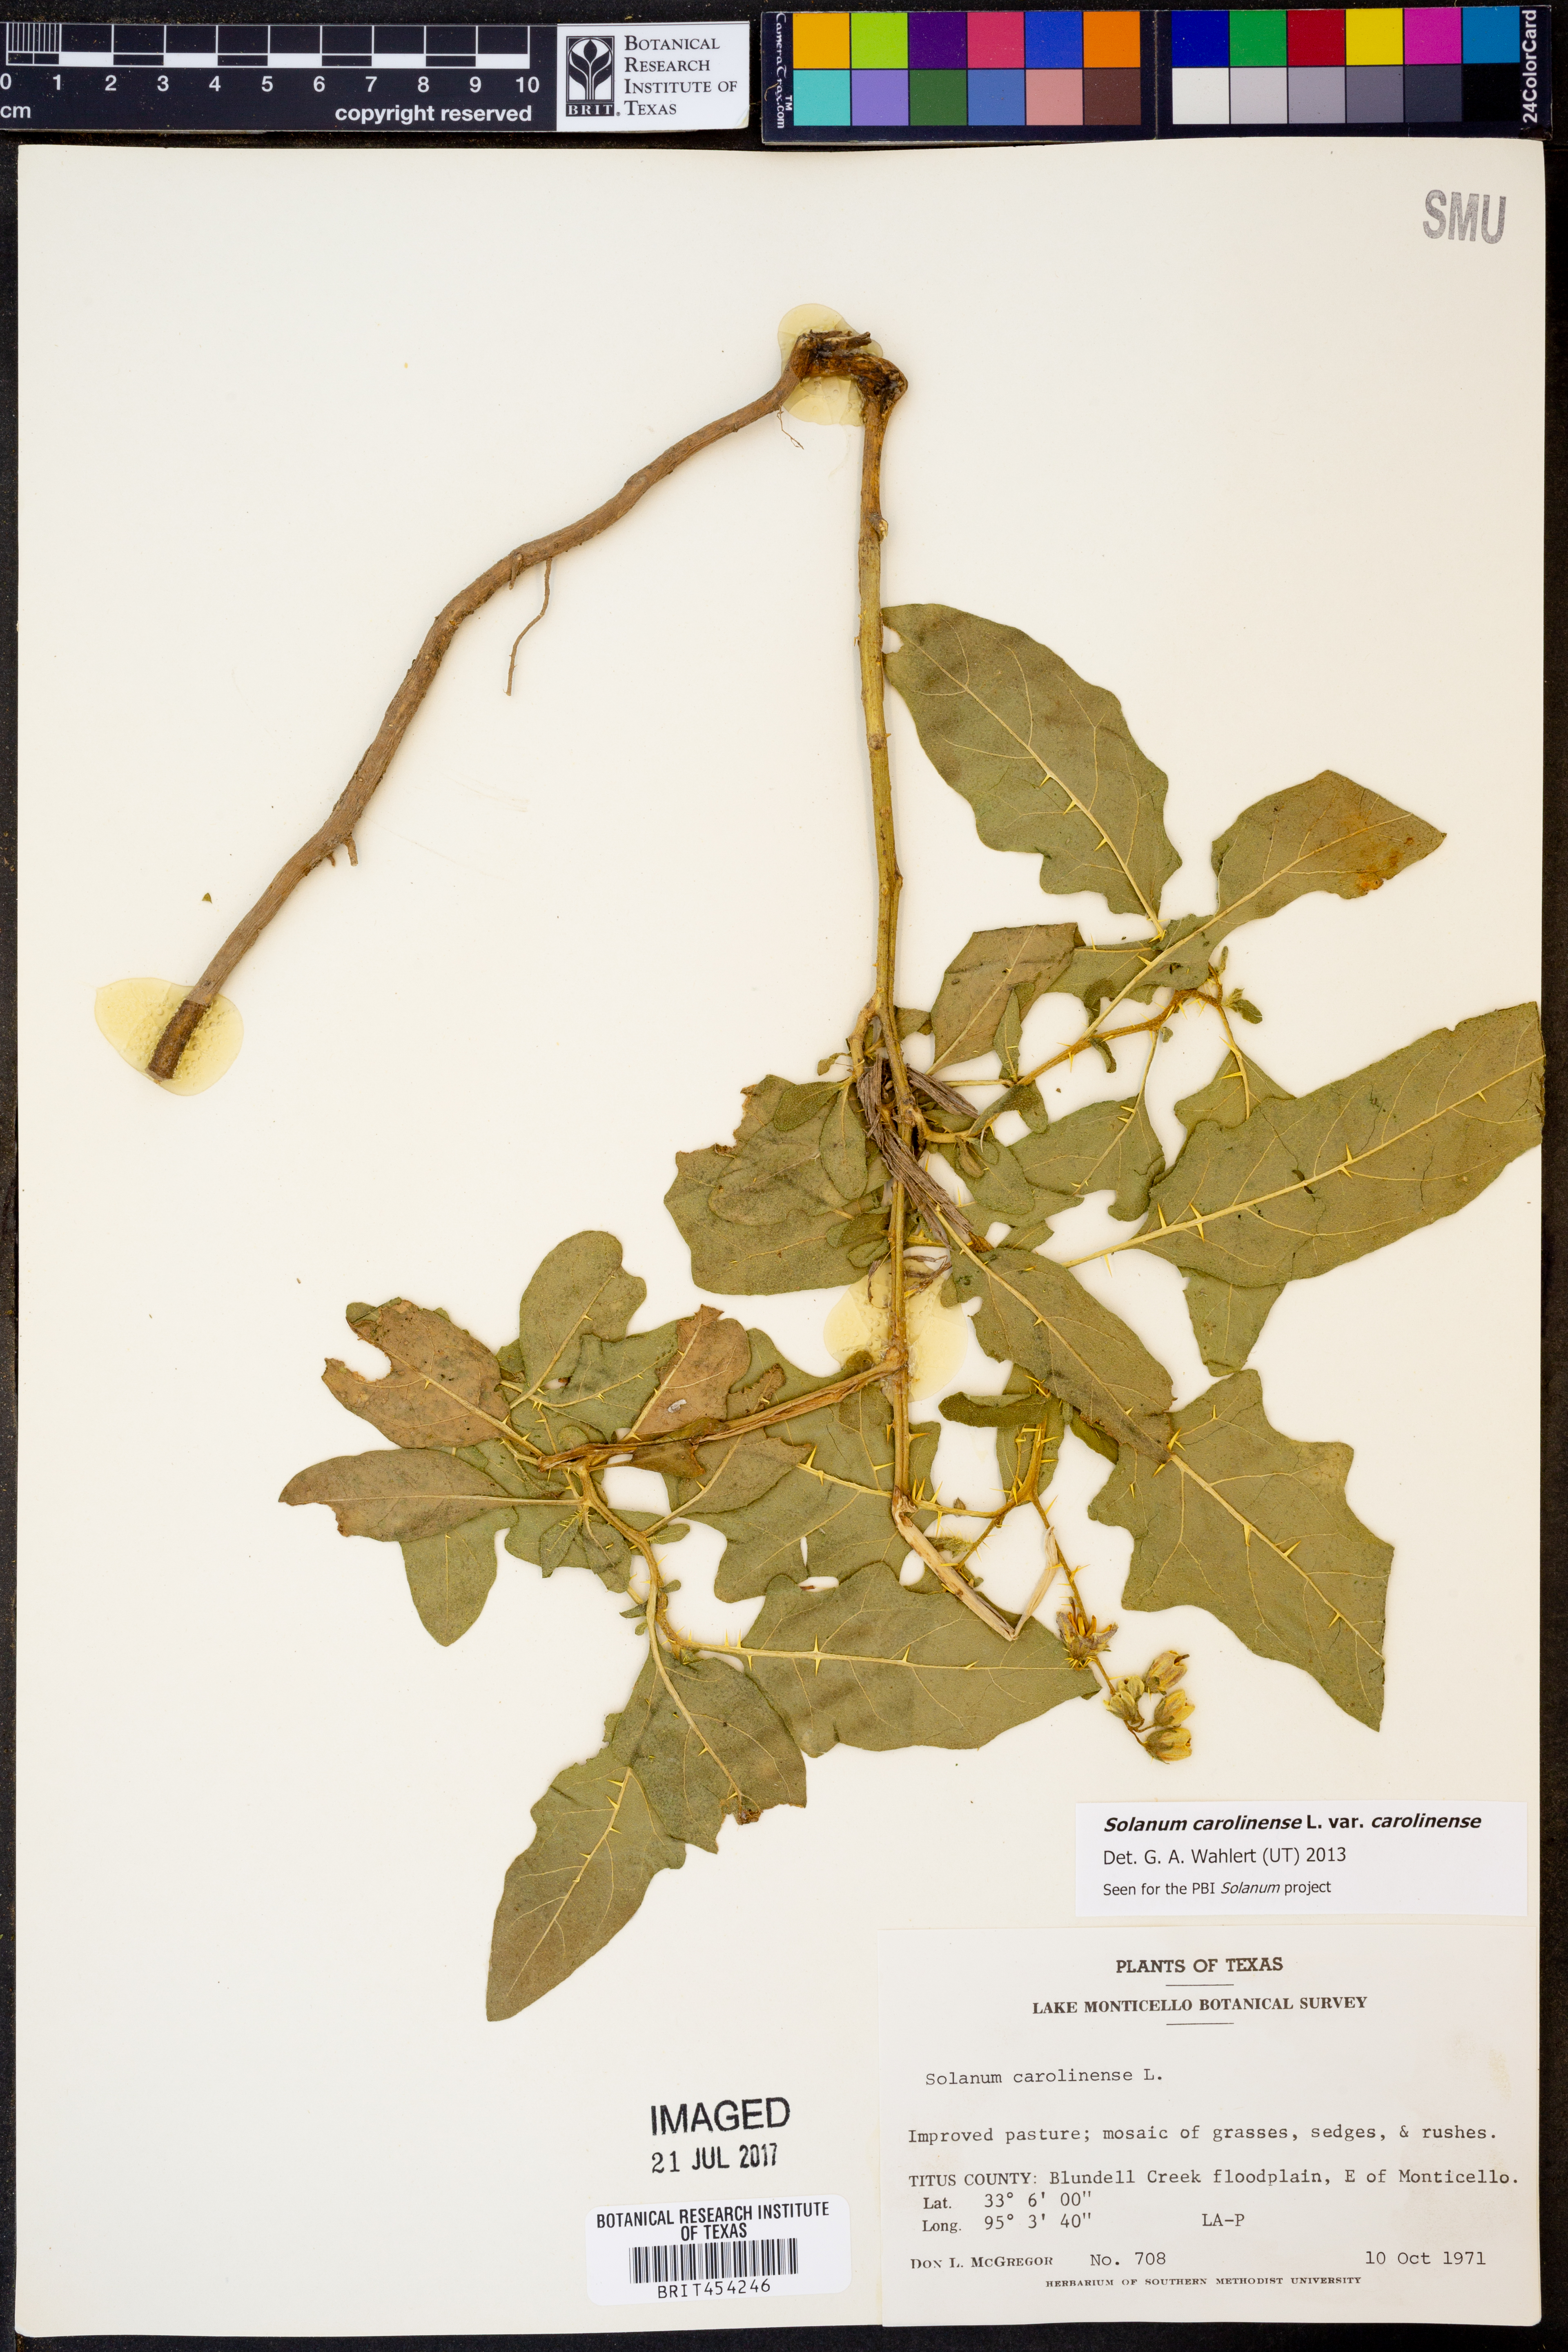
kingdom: Plantae
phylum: Tracheophyta
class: Magnoliopsida
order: Solanales
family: Solanaceae
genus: Solanum
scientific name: Solanum carolinense
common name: Horse-nettle
